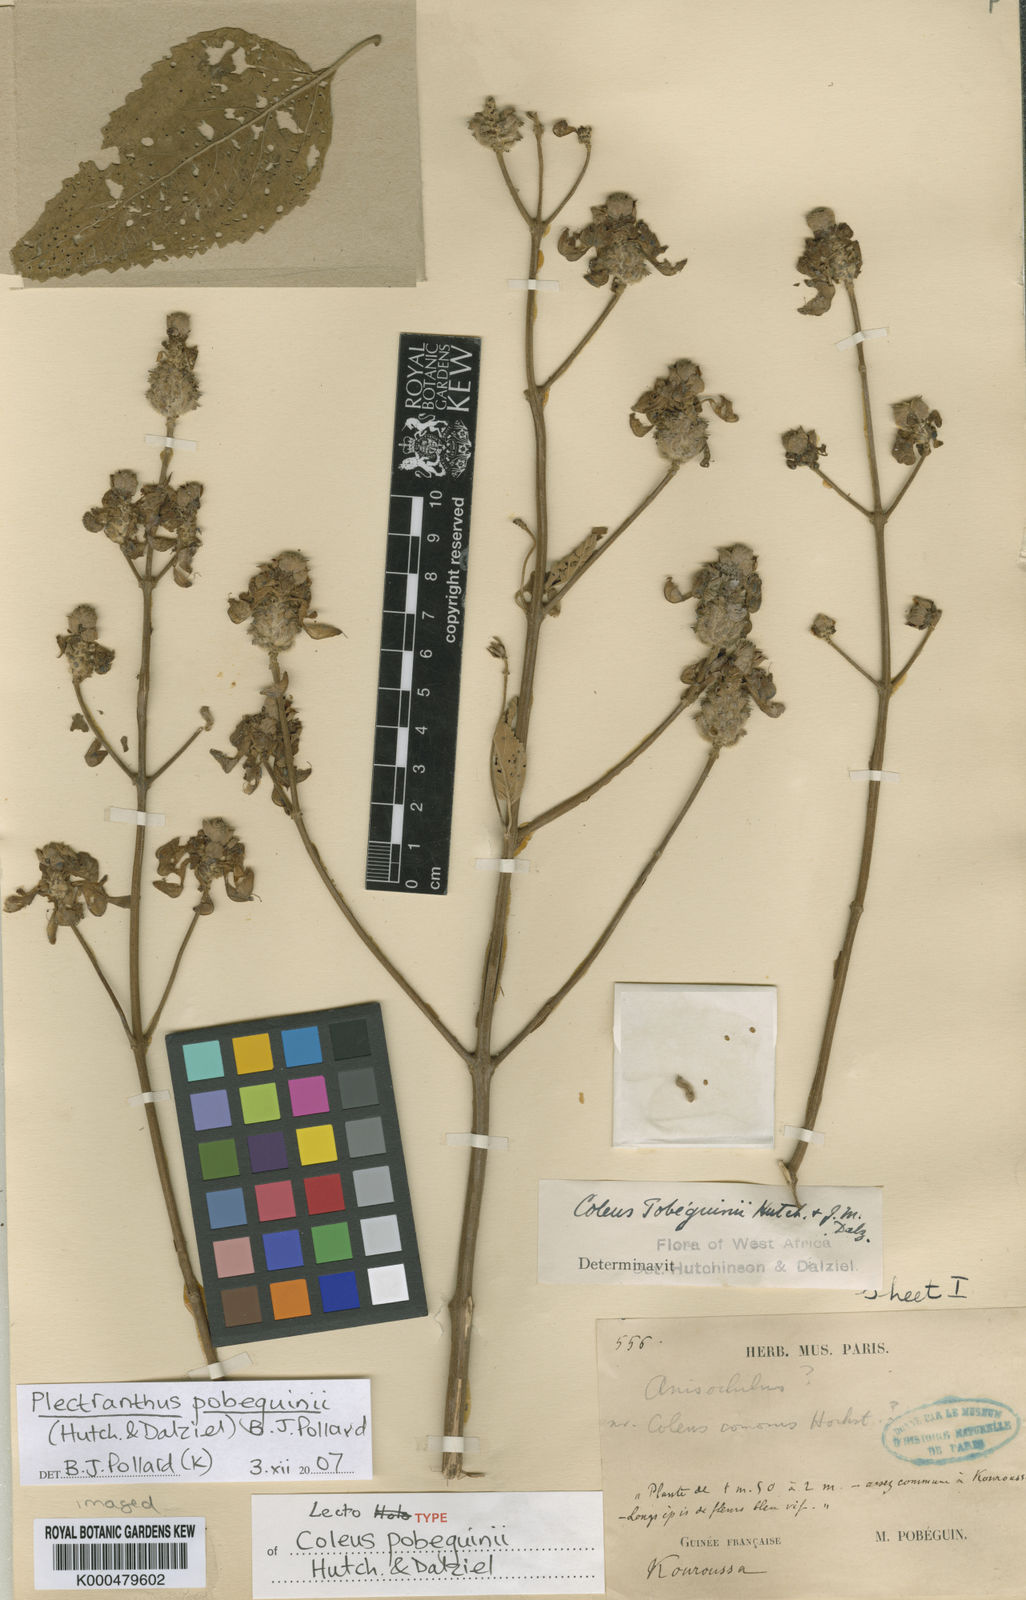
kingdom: Plantae
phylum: Tracheophyta
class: Magnoliopsida
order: Lamiales
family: Lamiaceae
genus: Coleus
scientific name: Coleus pobeguinii
